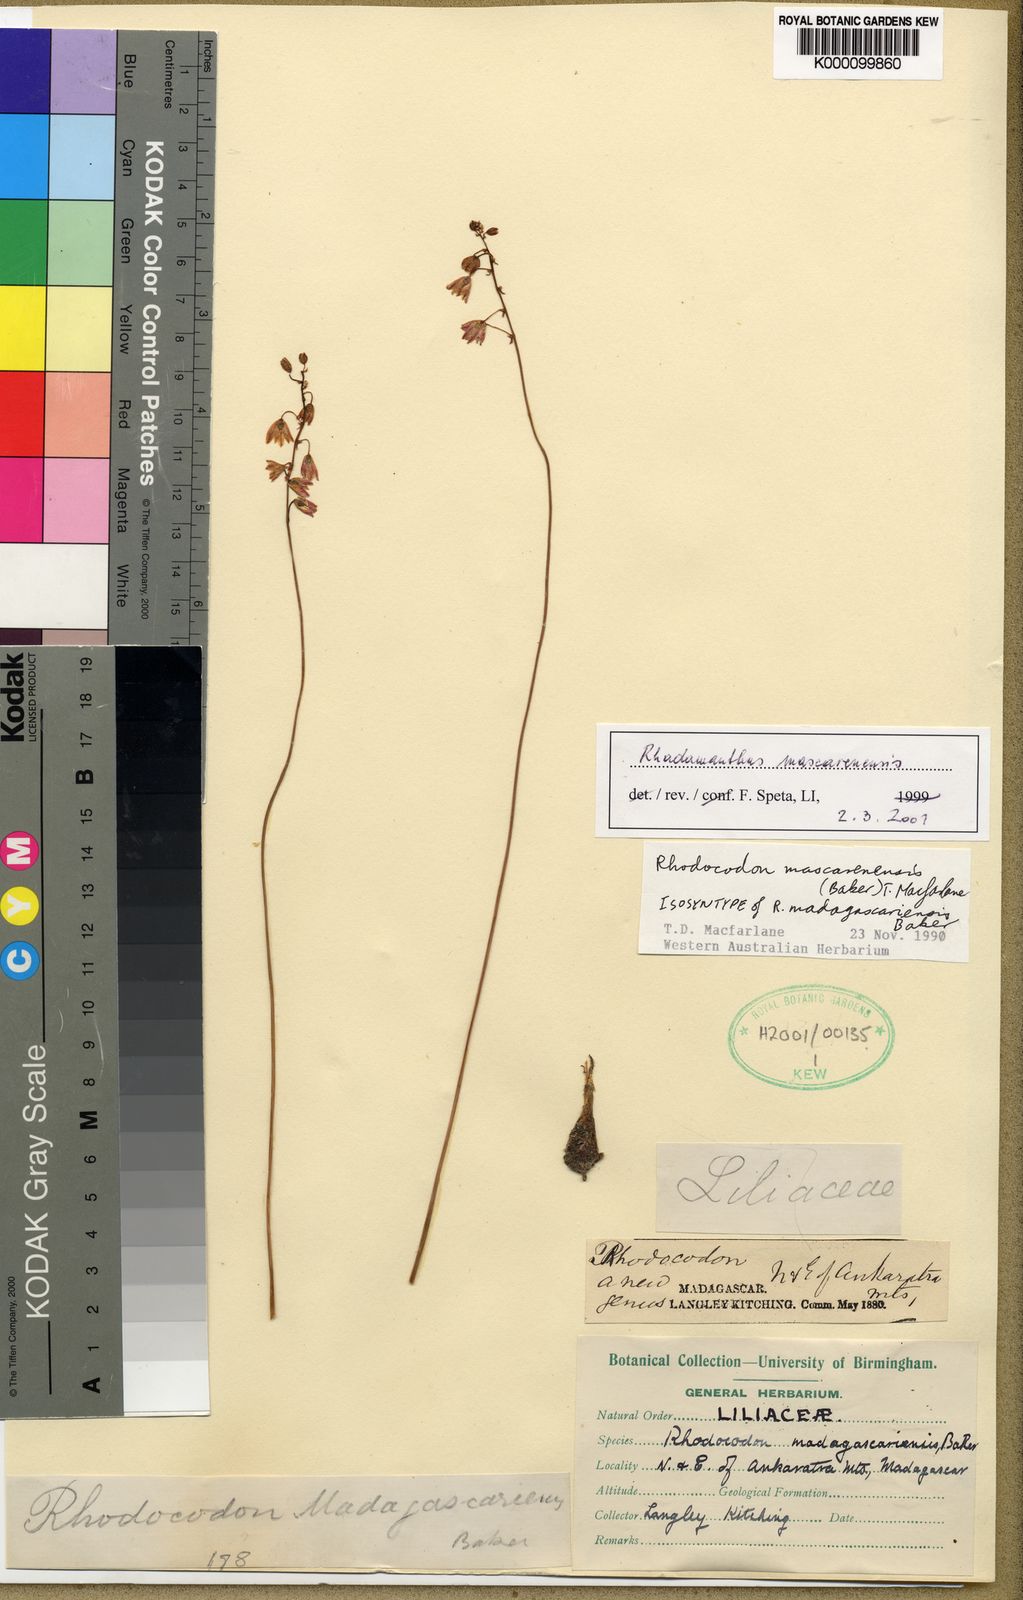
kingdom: Plantae
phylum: Tracheophyta
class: Liliopsida
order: Asparagales
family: Asparagaceae
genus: Drimia
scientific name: Drimia
